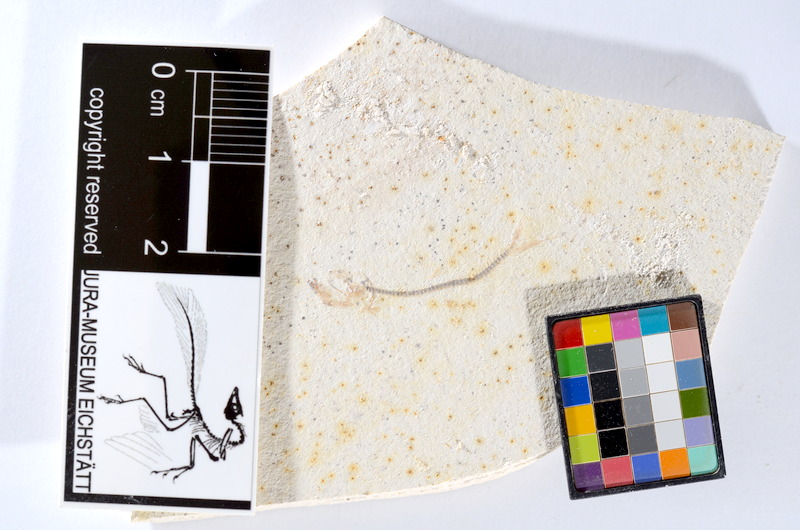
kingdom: Animalia
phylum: Chordata
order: Salmoniformes
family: Orthogonikleithridae
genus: Orthogonikleithrus
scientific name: Orthogonikleithrus hoelli
